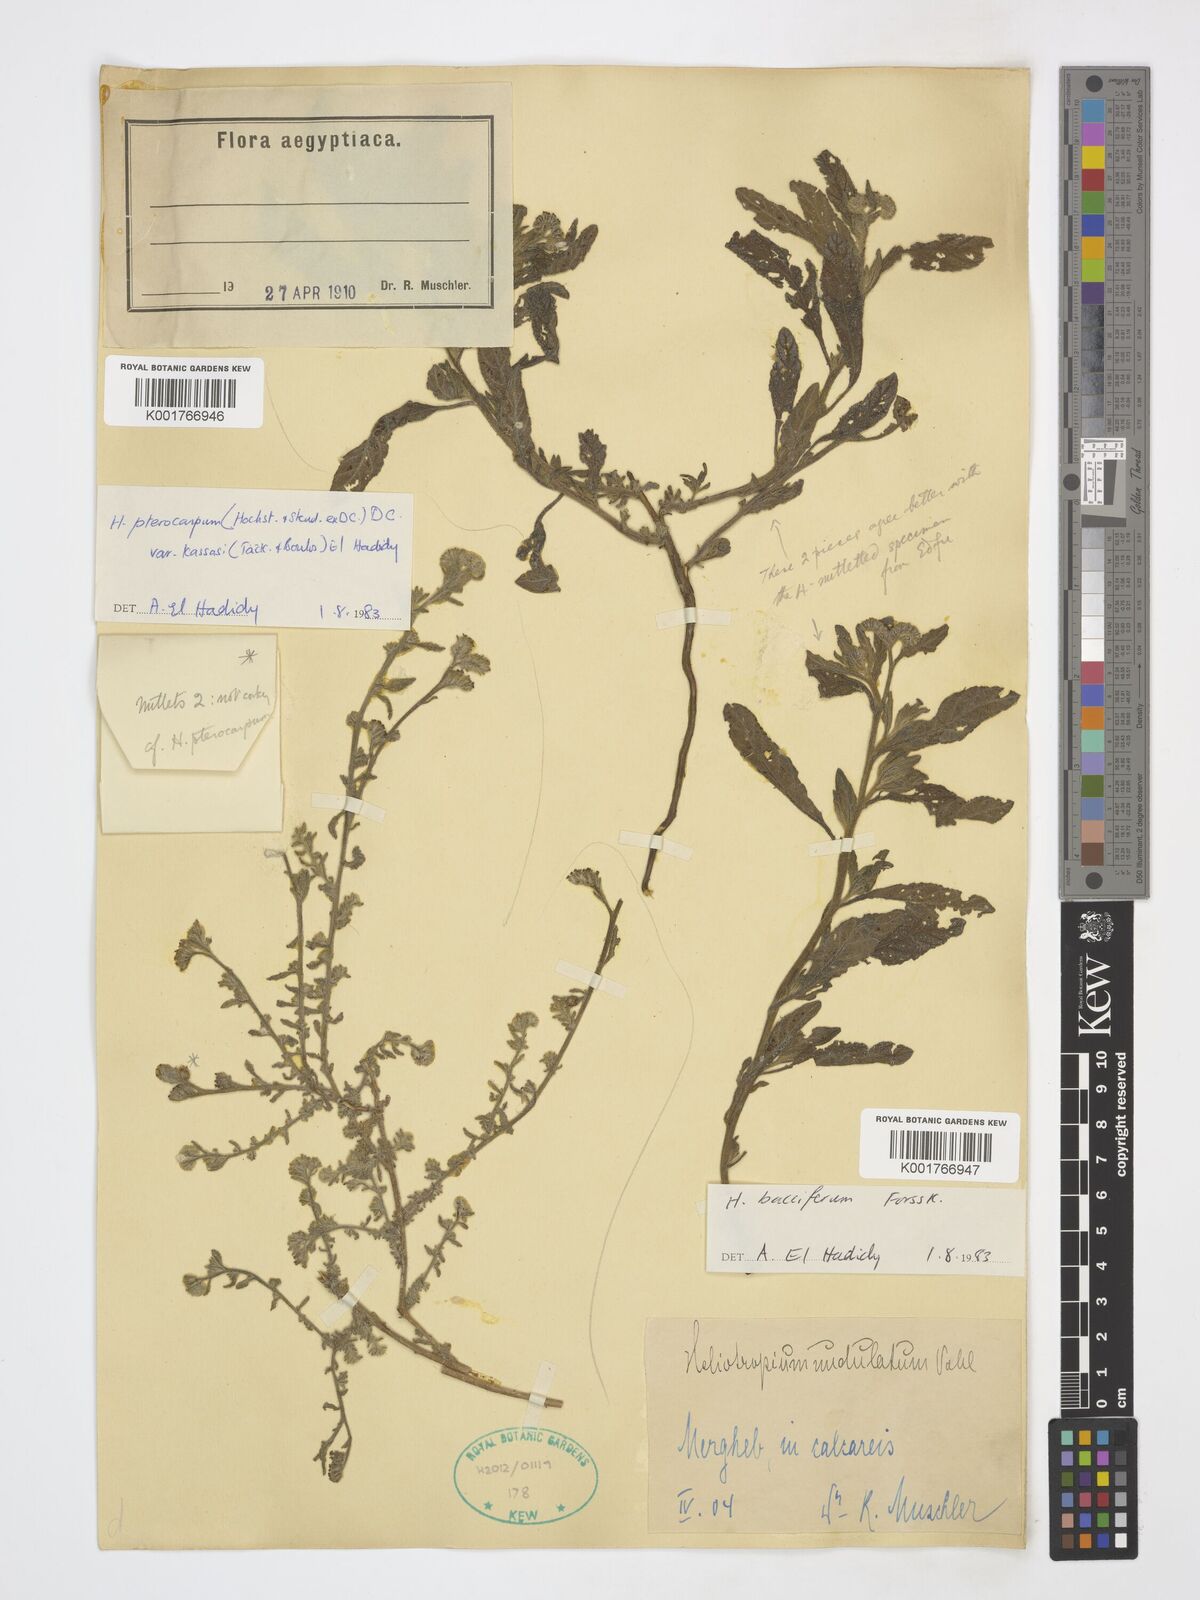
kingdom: Plantae
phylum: Tracheophyta
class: Magnoliopsida
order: Boraginales
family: Heliotropiaceae
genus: Heliotropium
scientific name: Heliotropium pterocarpum
